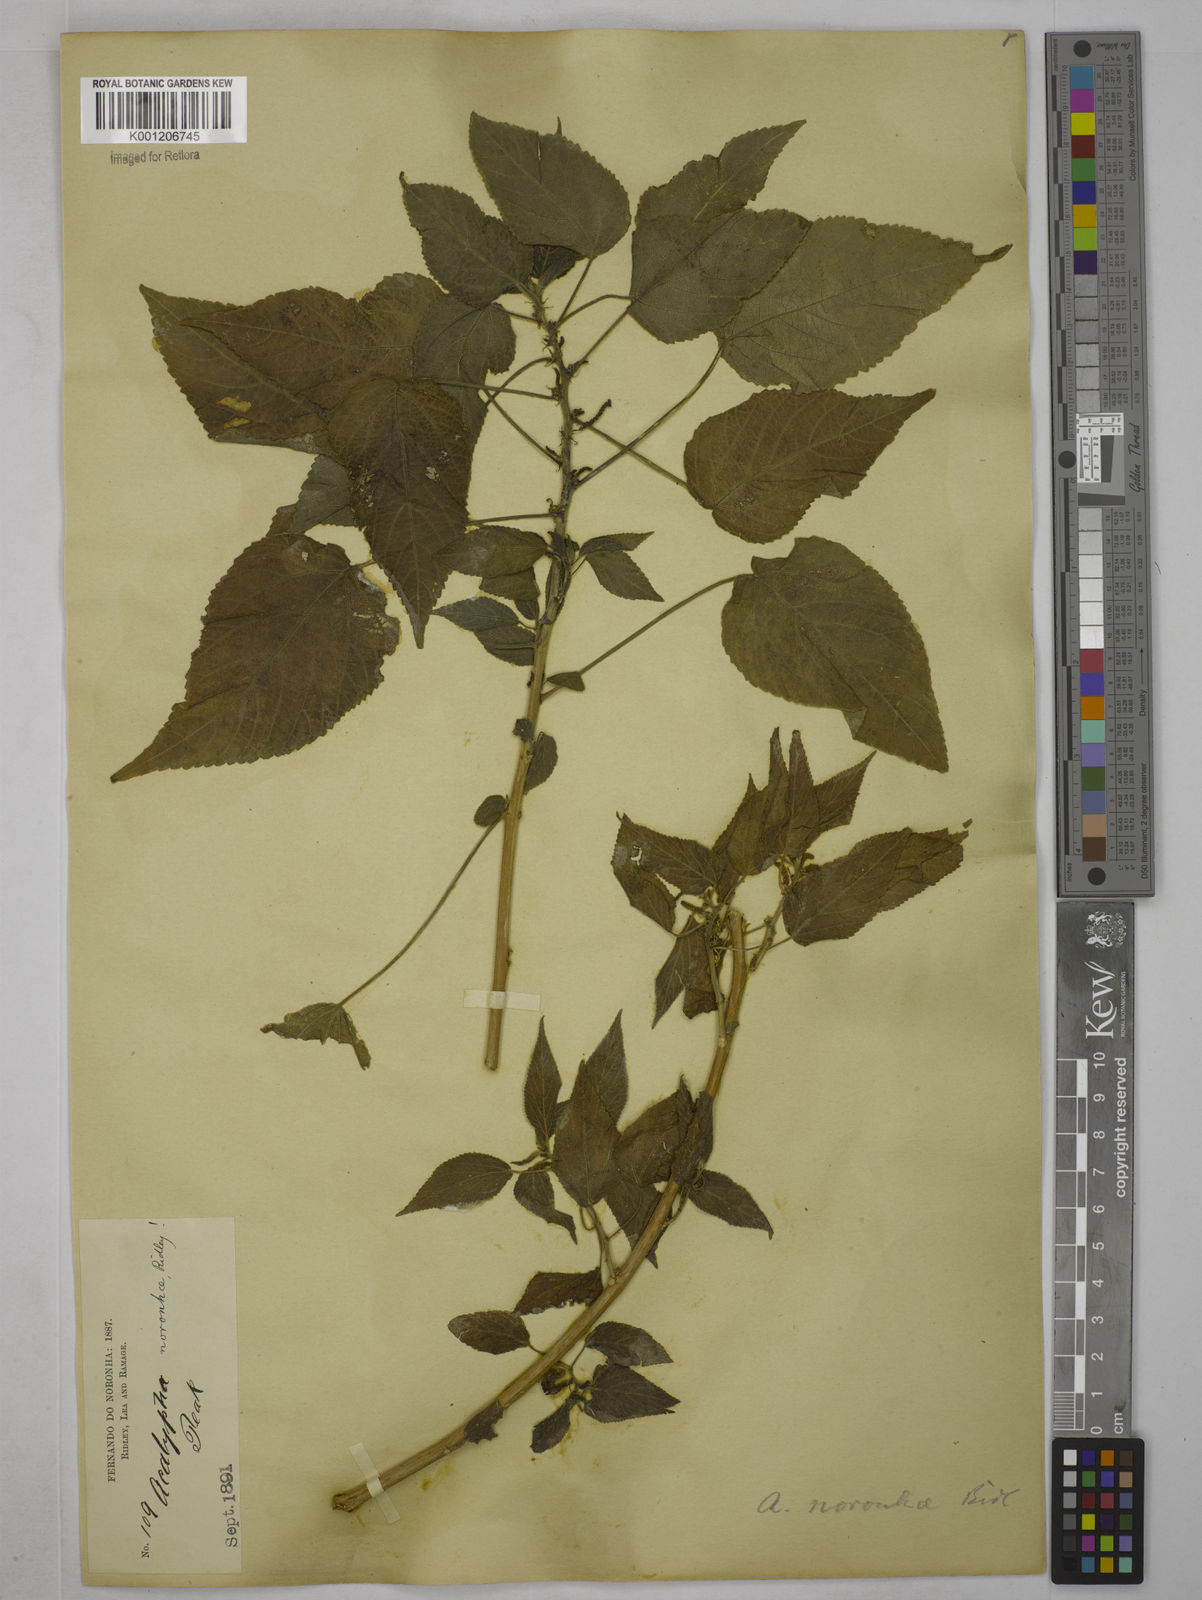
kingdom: Plantae
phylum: Tracheophyta
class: Magnoliopsida
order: Malpighiales
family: Euphorbiaceae
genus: Acalypha
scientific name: Acalypha noronhae
